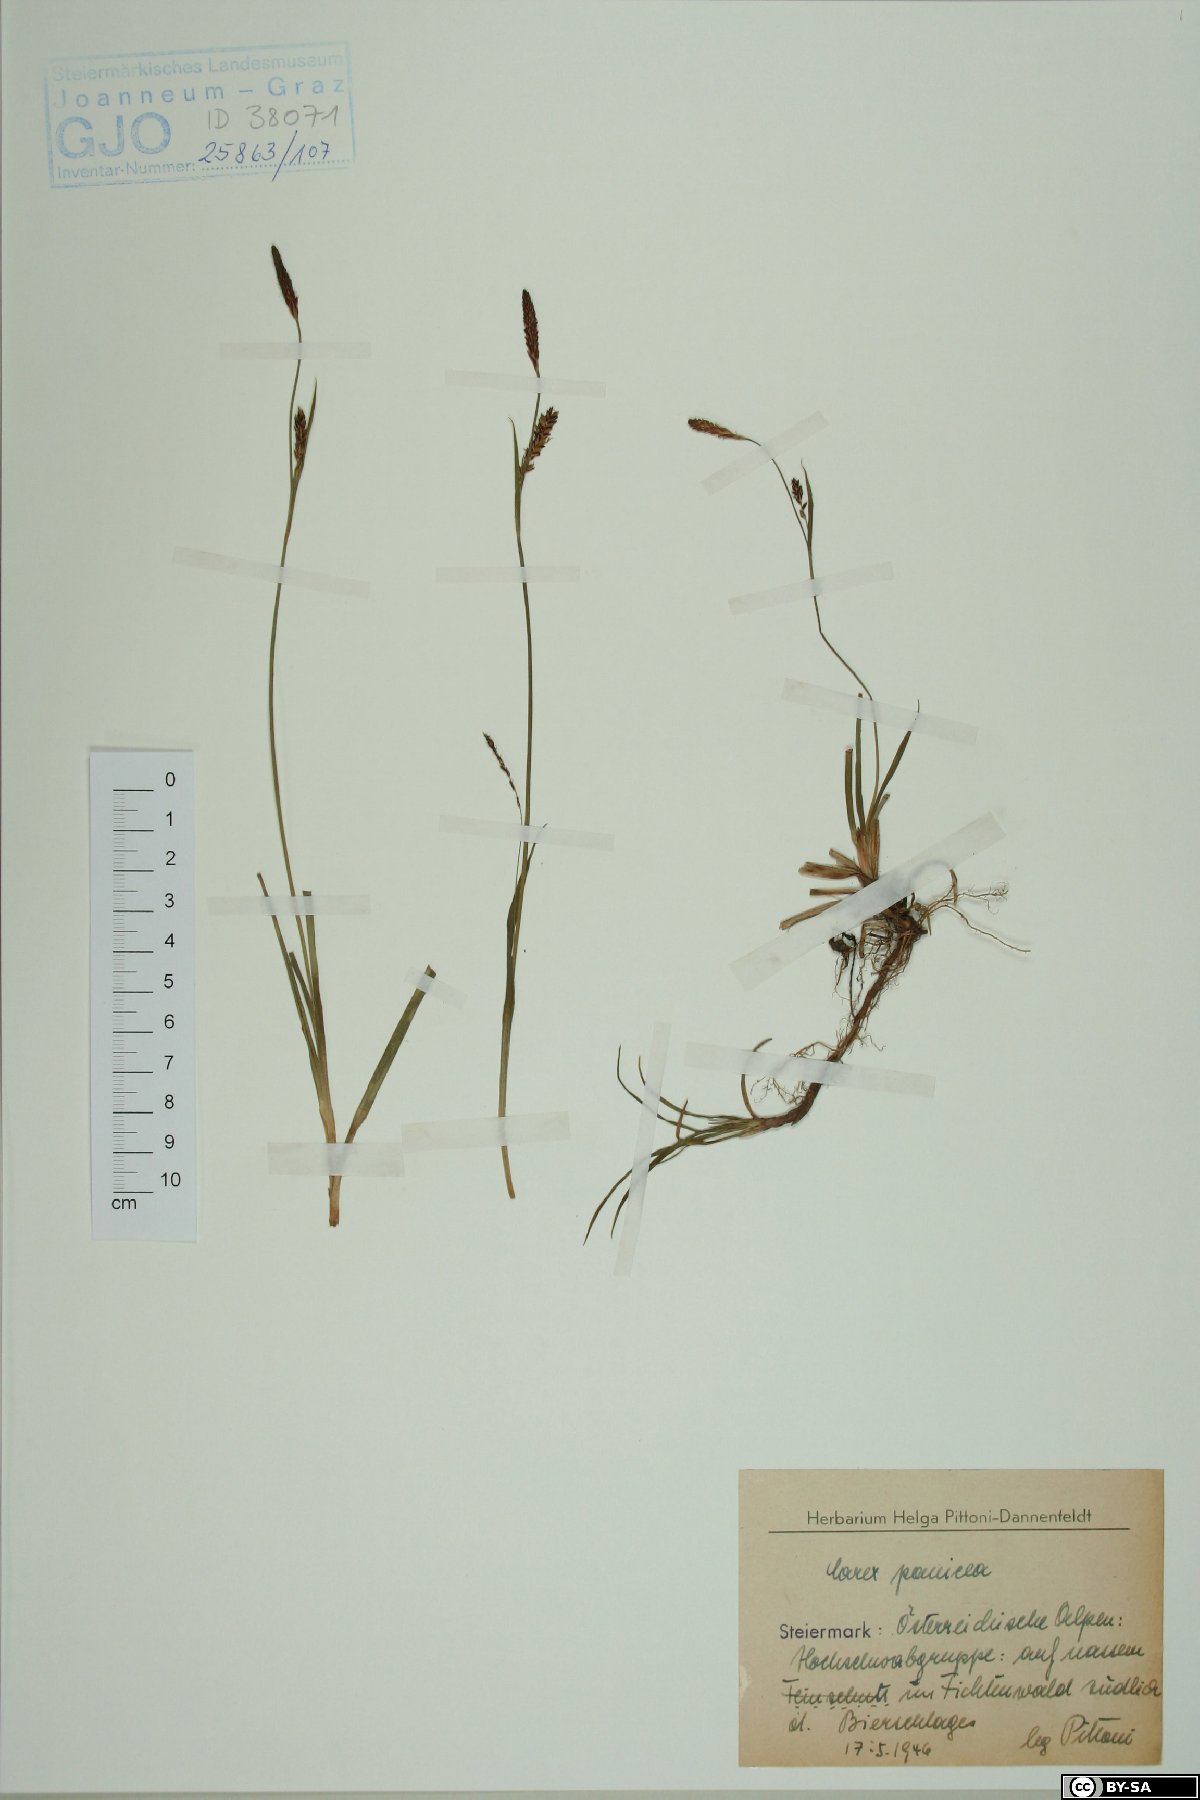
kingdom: Plantae
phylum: Tracheophyta
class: Liliopsida
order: Poales
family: Cyperaceae
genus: Carex
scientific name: Carex panicea
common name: Carnation sedge
